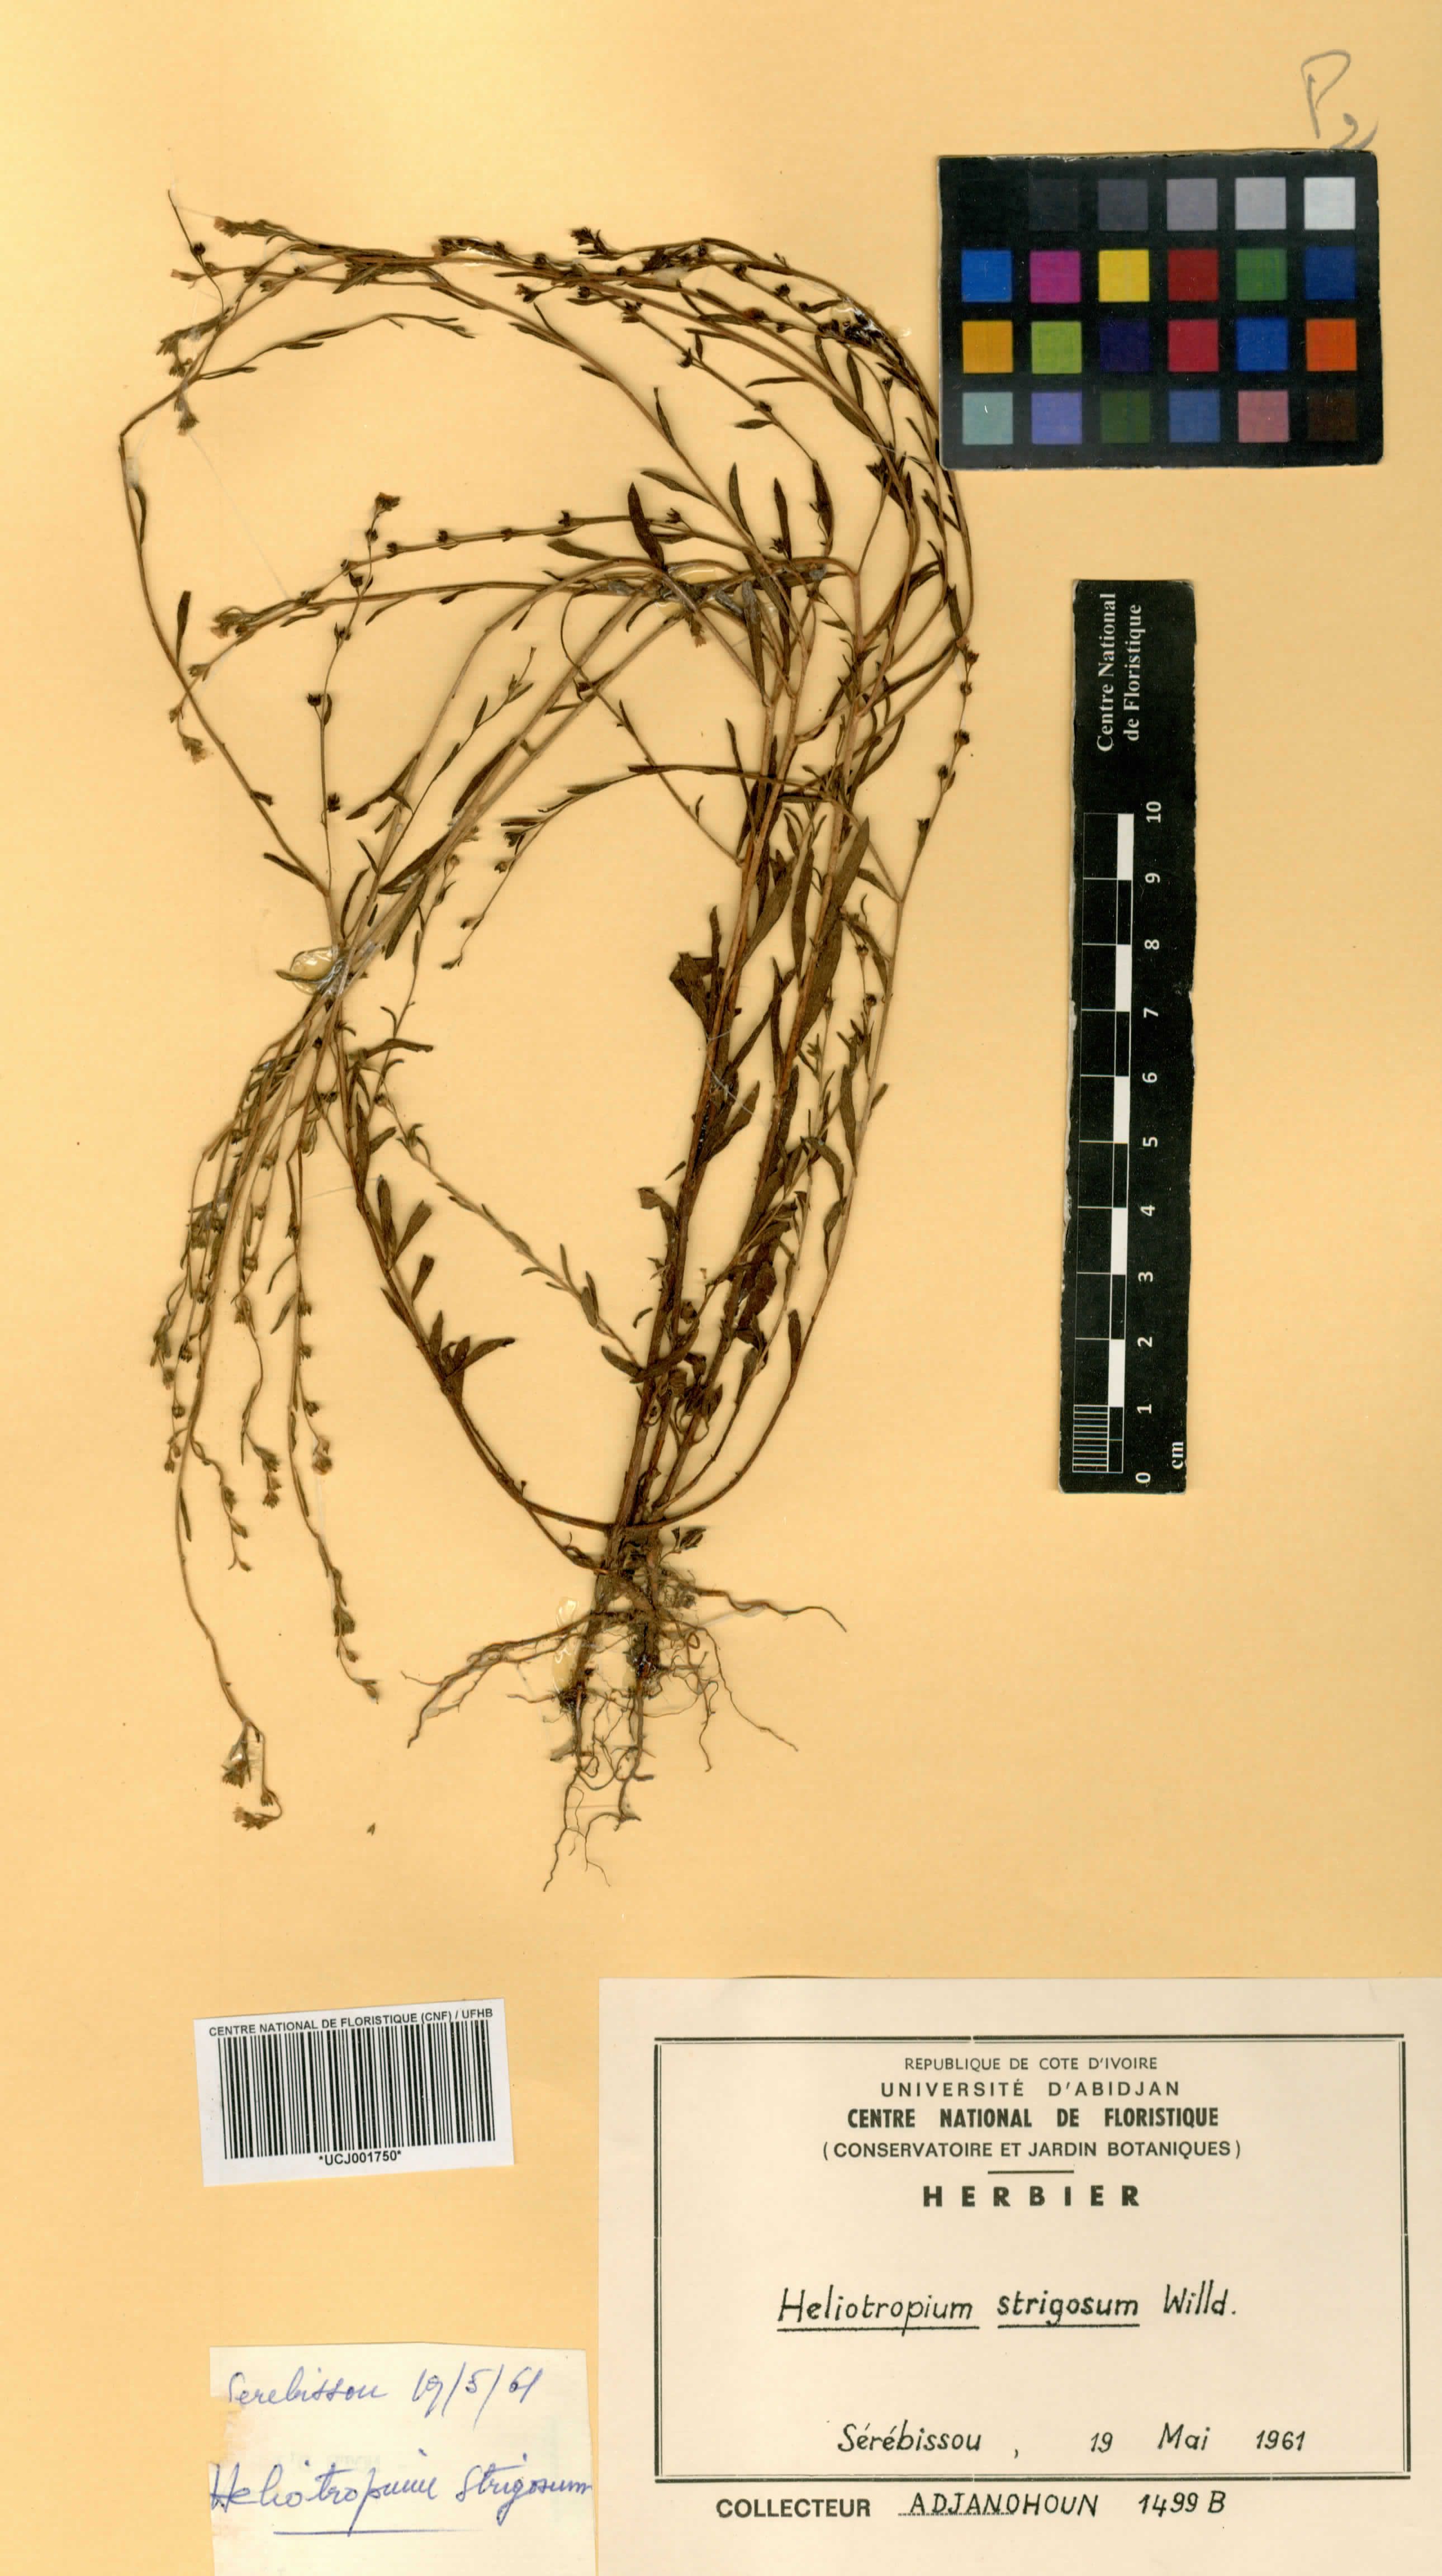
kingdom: Plantae
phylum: Tracheophyta
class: Magnoliopsida
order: Boraginales
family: Heliotropiaceae
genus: Euploca
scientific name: Euploca strigosa
